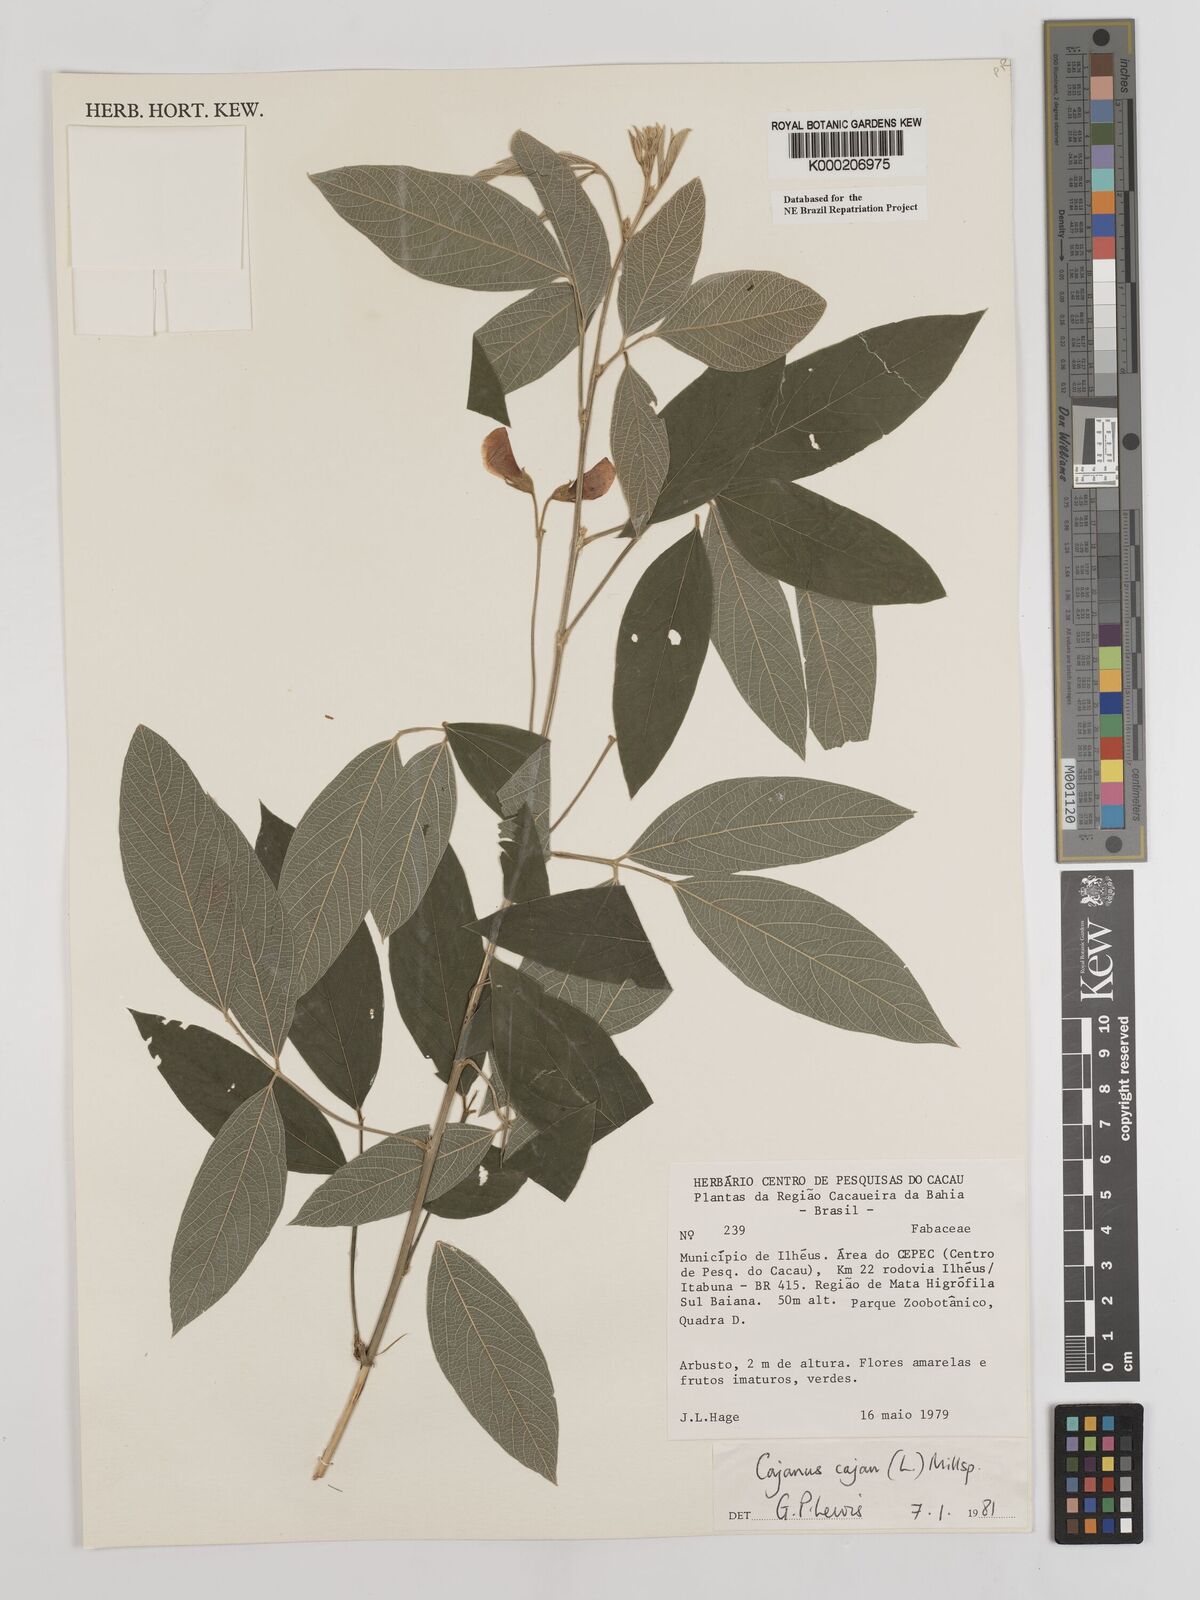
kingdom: Plantae
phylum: Tracheophyta
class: Magnoliopsida
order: Fabales
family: Fabaceae
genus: Cajanus
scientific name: Cajanus
